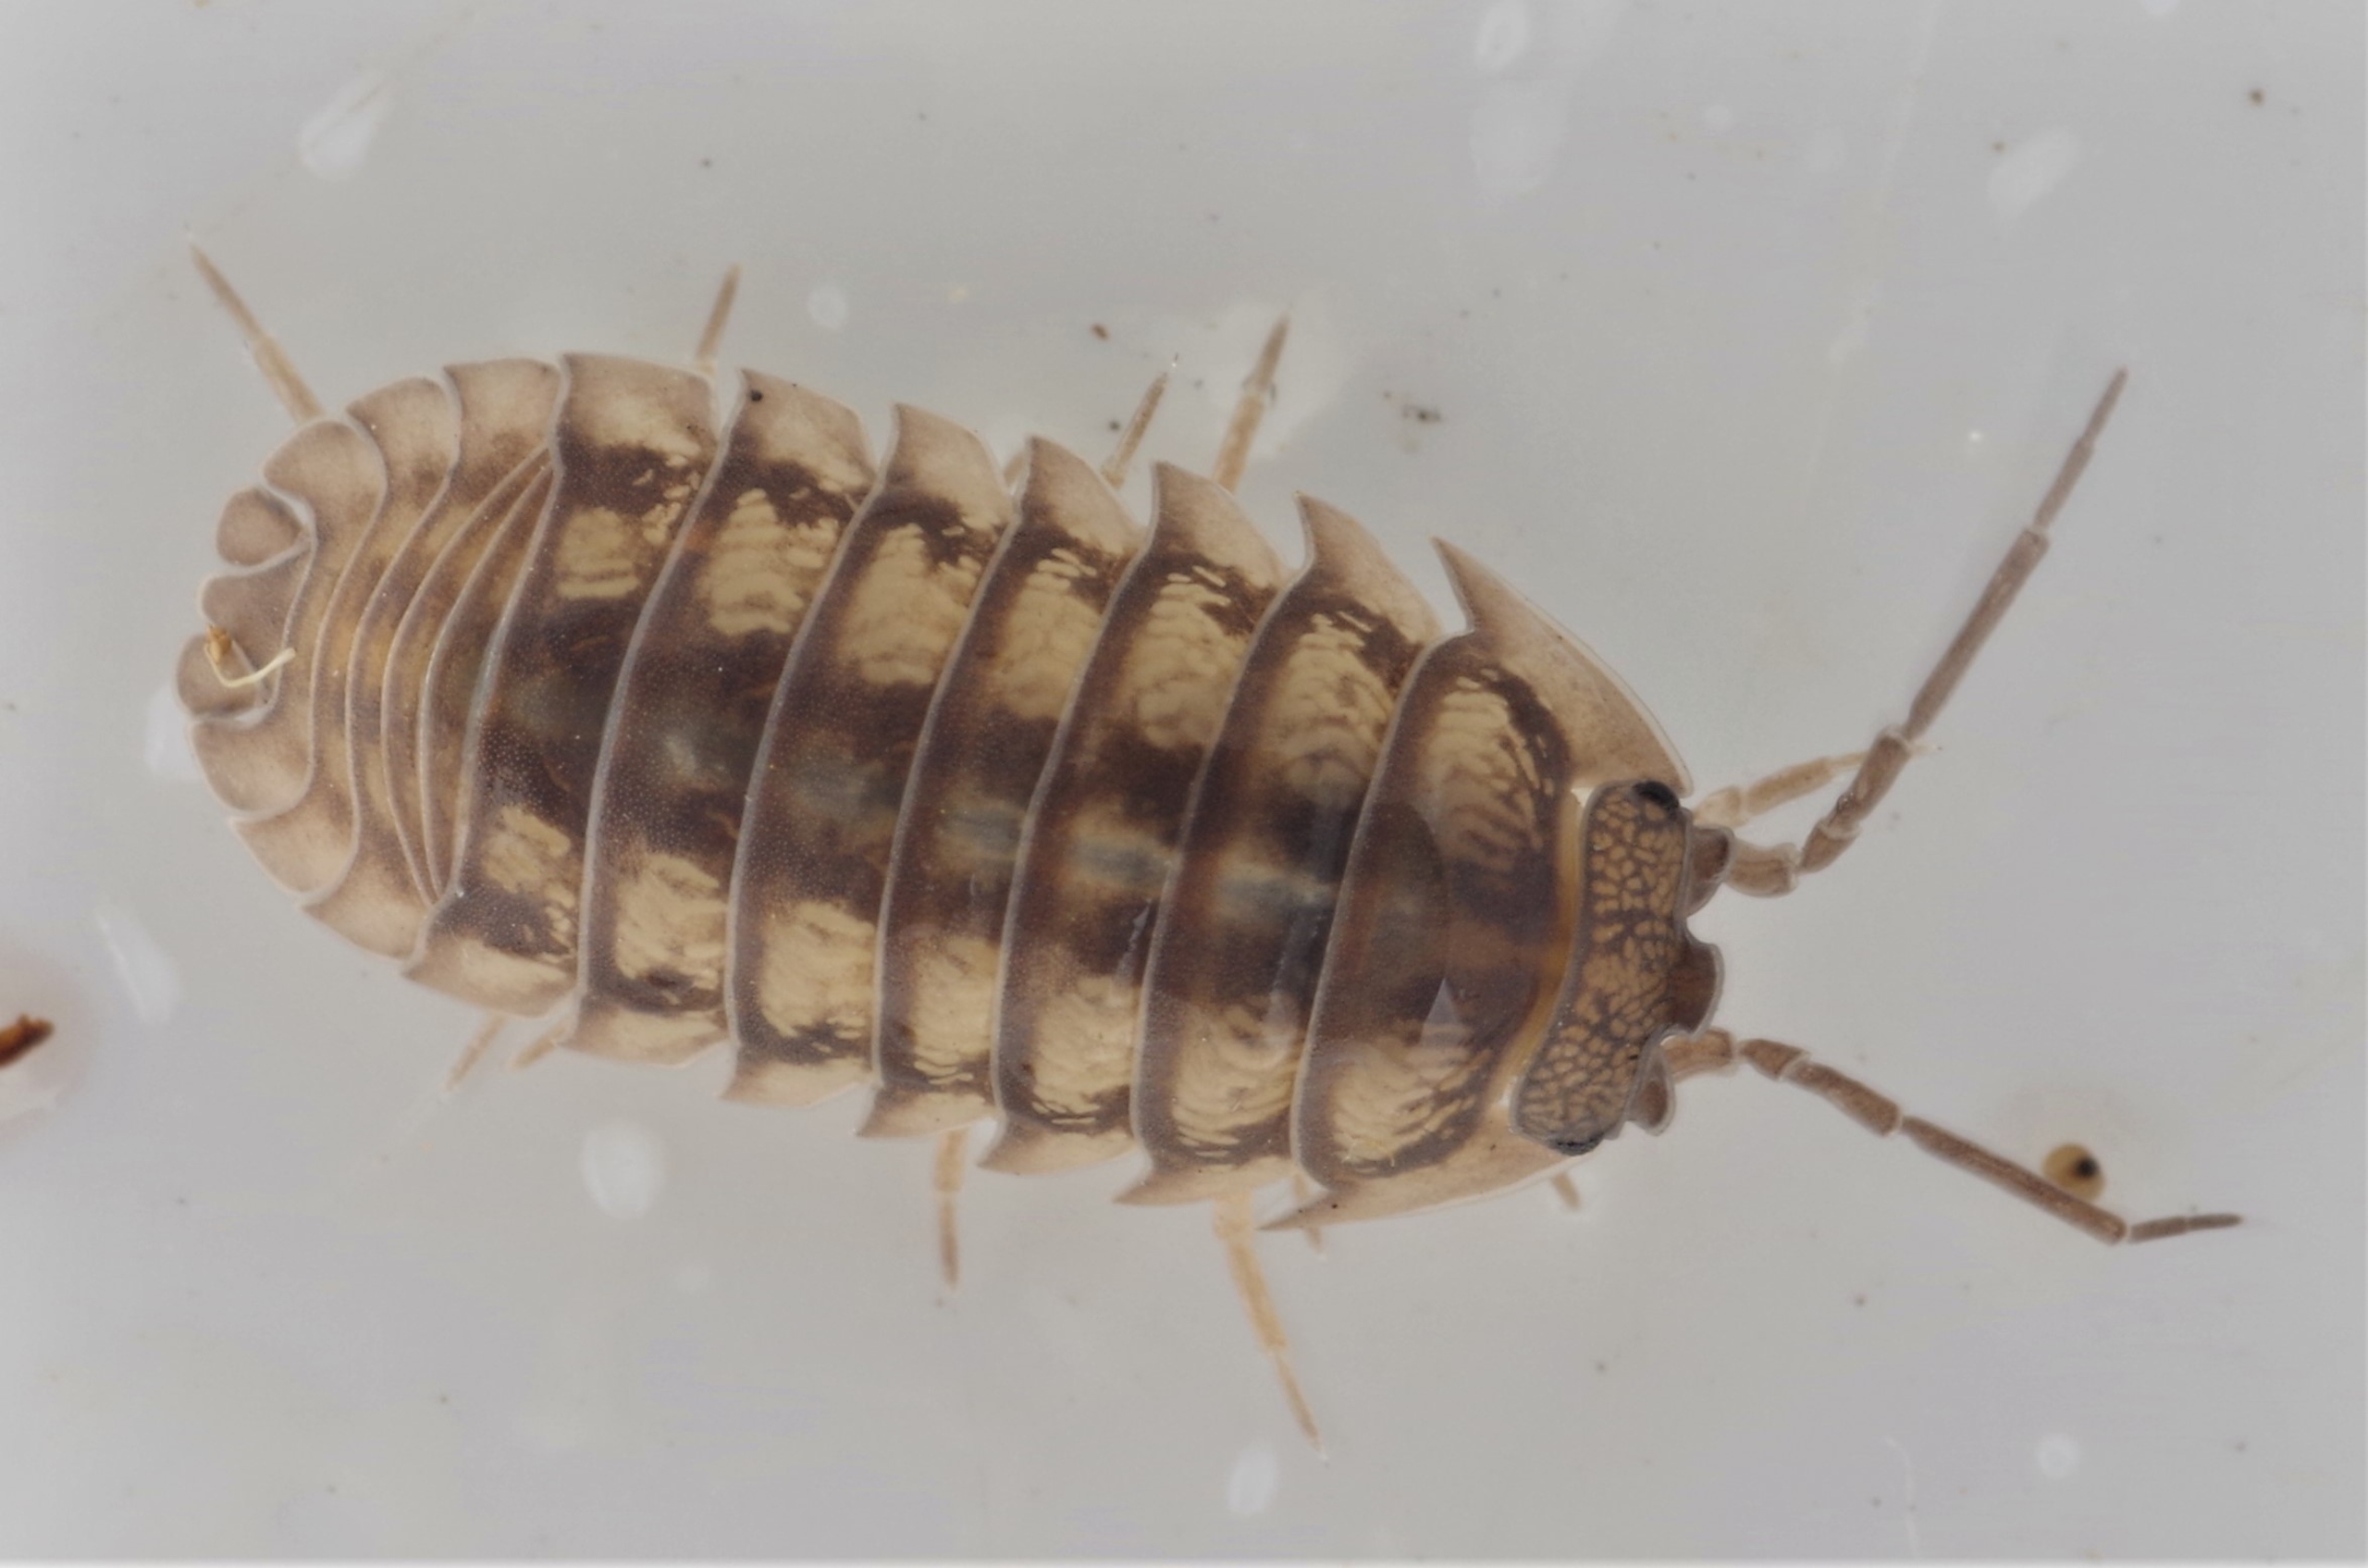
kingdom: Animalia
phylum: Arthropoda
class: Malacostraca
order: Isopoda
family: Armadillidiidae
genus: Armadillidium
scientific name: Armadillidium nasatum
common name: Fladnæset kuglebænkebider
